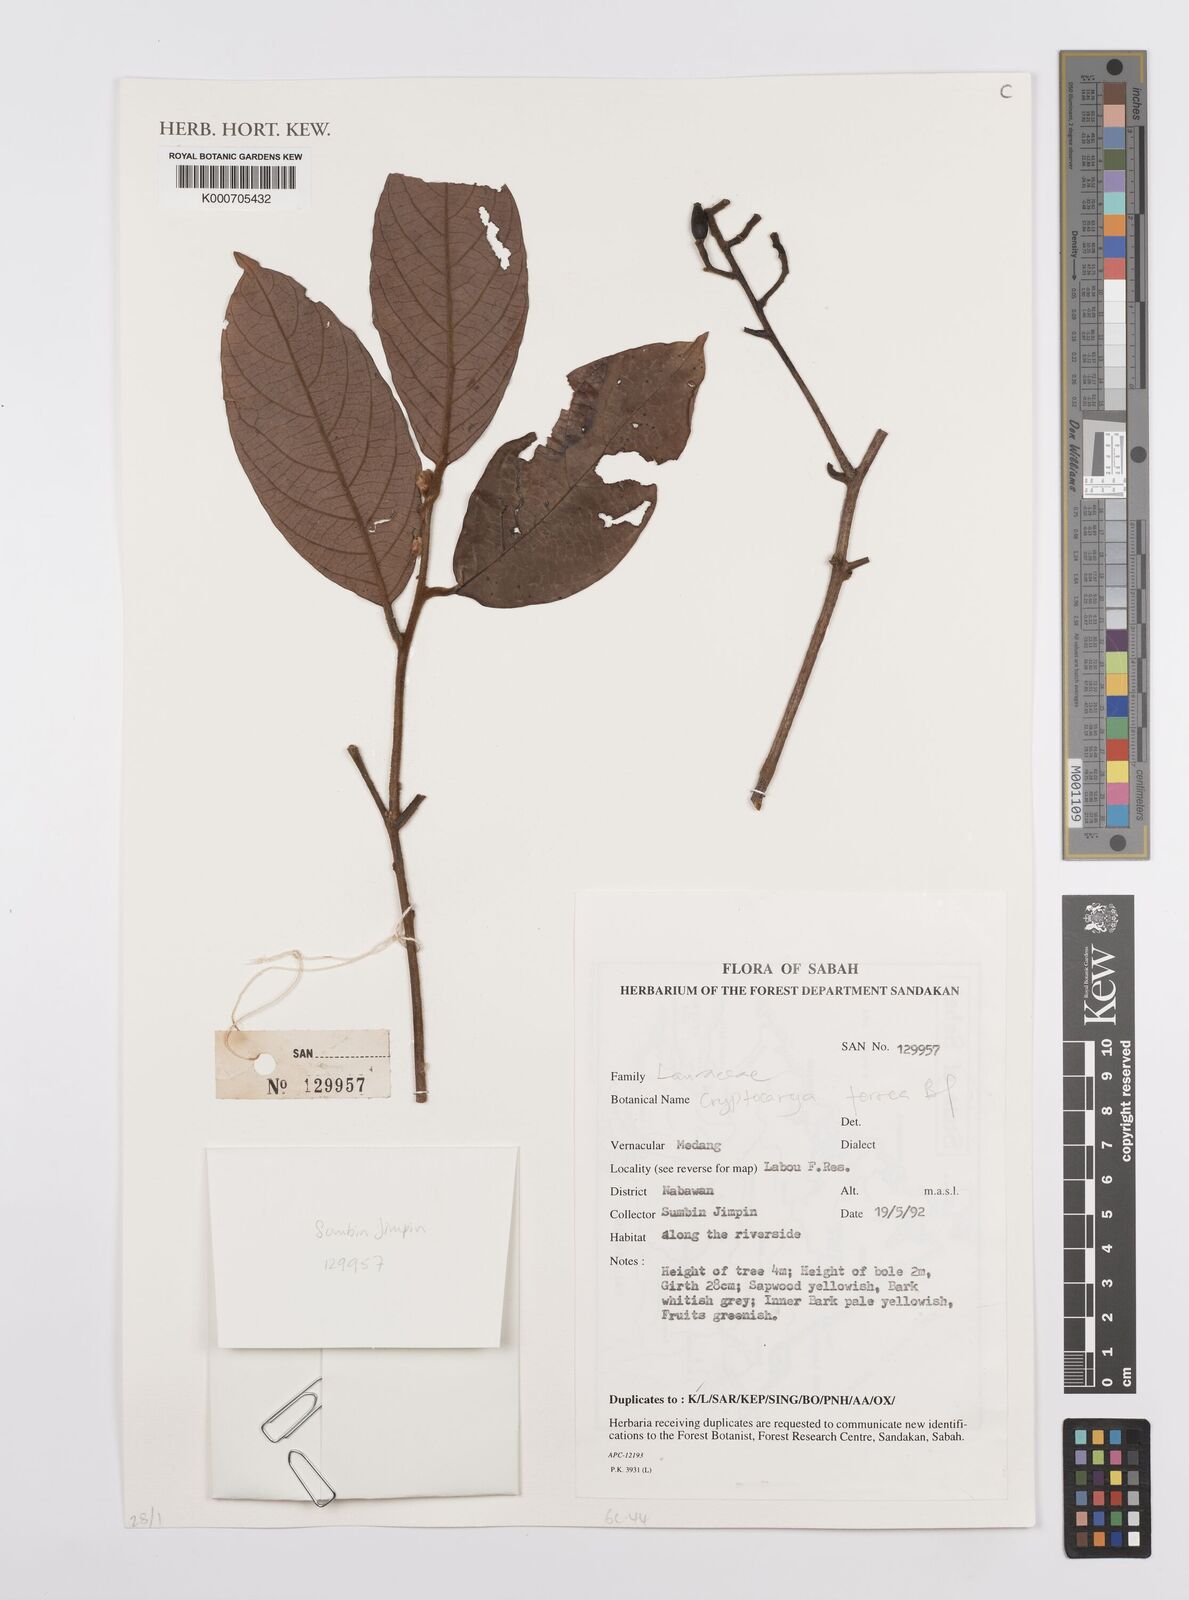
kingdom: Plantae
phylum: Tracheophyta
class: Magnoliopsida
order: Laurales
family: Lauraceae
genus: Cryptocarya
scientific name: Cryptocarya ferrea
